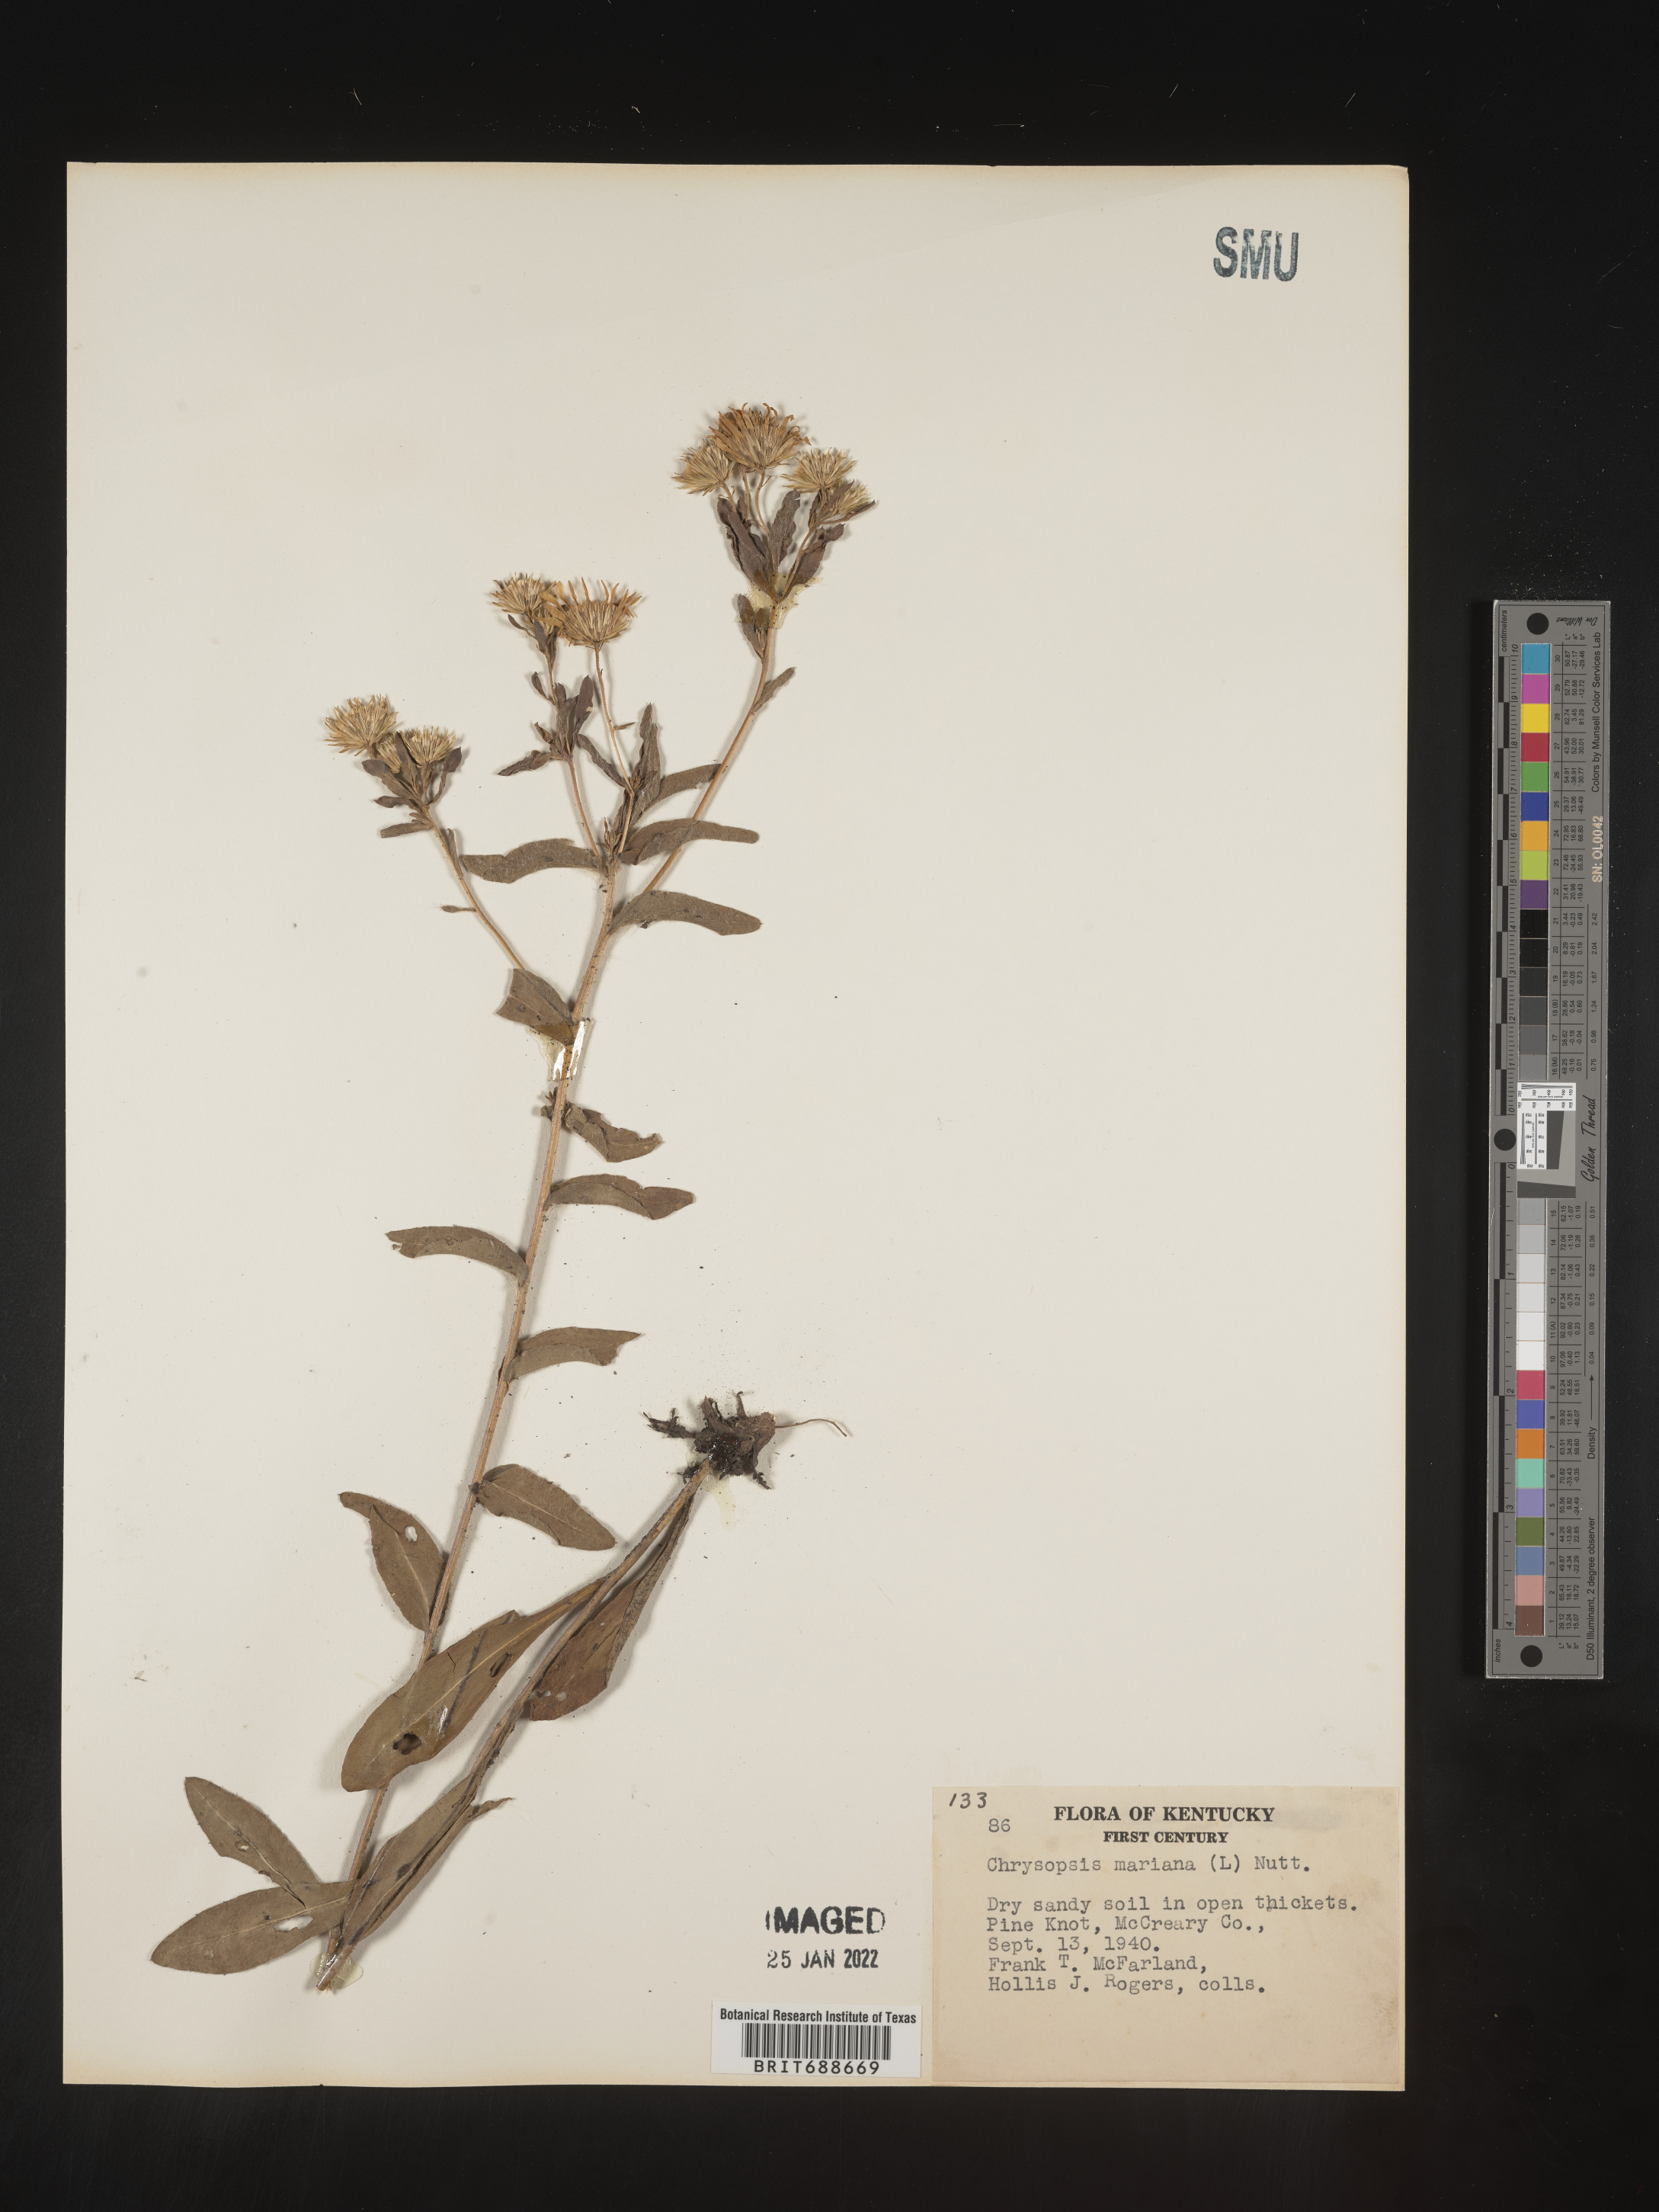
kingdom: Plantae
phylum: Tracheophyta
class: Magnoliopsida
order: Asterales
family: Asteraceae
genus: Chrysopsis
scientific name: Chrysopsis mariana
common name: Maryland golden-aster
